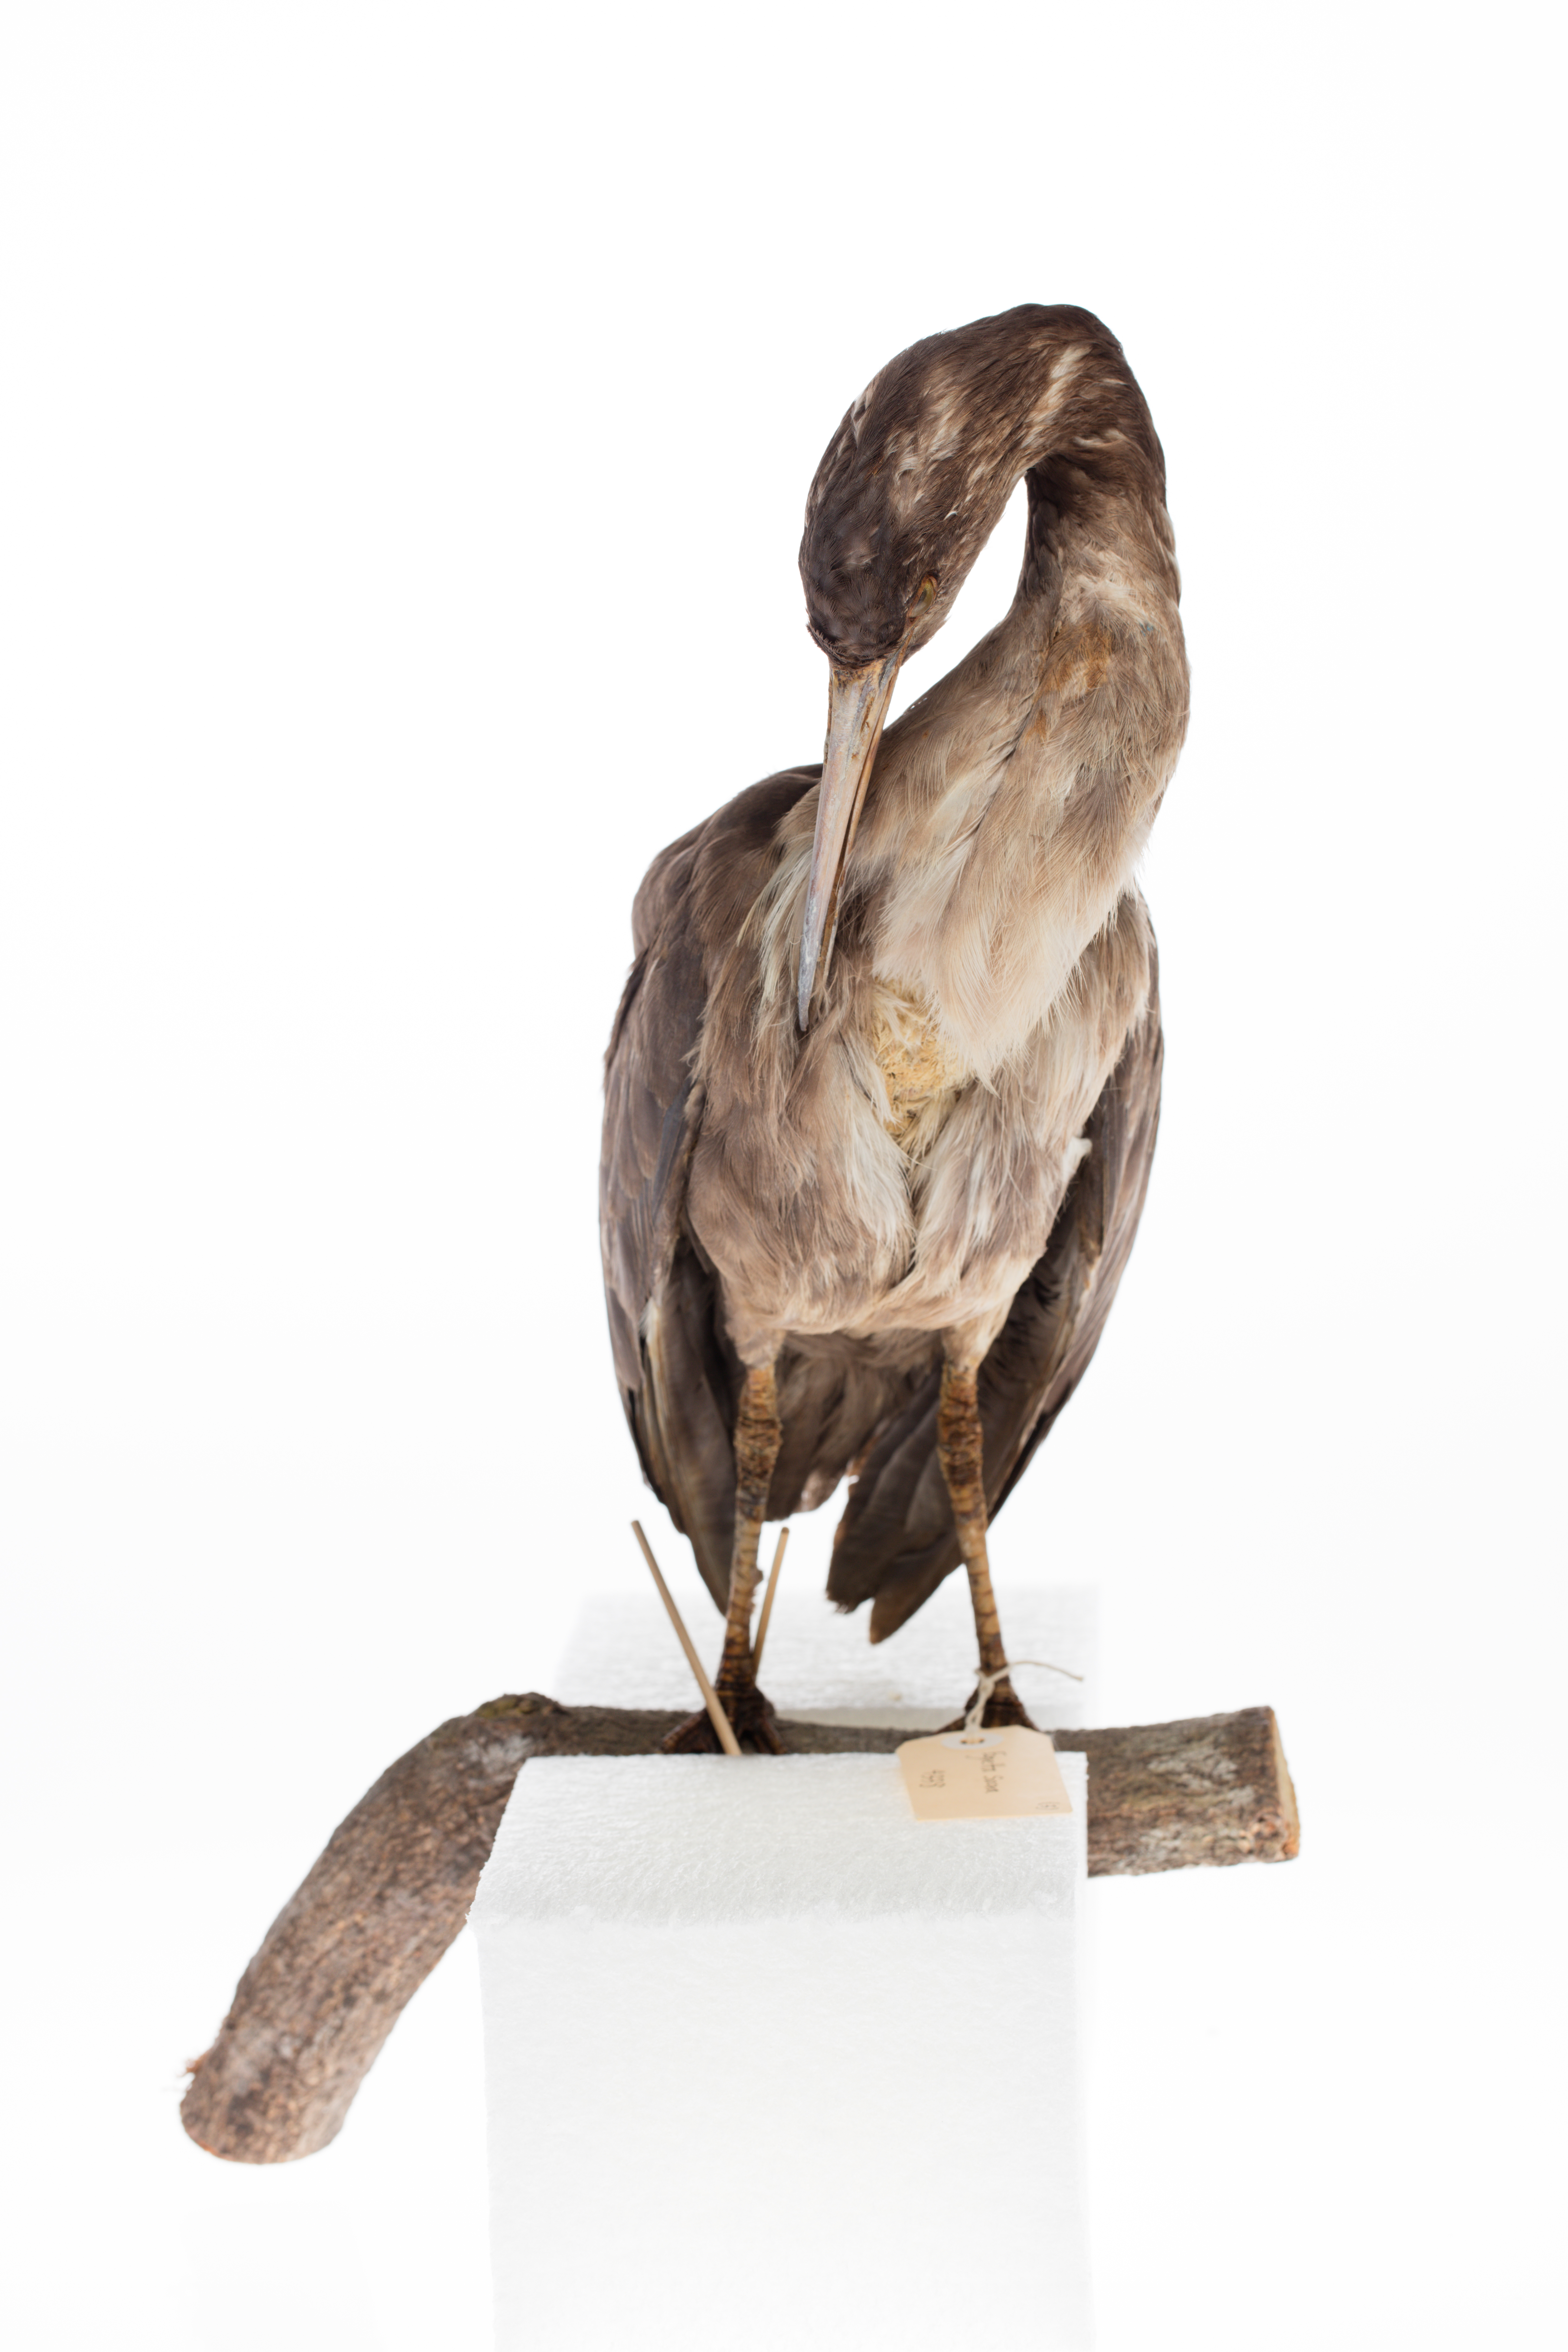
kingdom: Animalia
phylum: Chordata
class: Aves
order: Pelecaniformes
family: Ardeidae
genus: Egretta
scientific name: Egretta sacra
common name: Pacific reef heron
